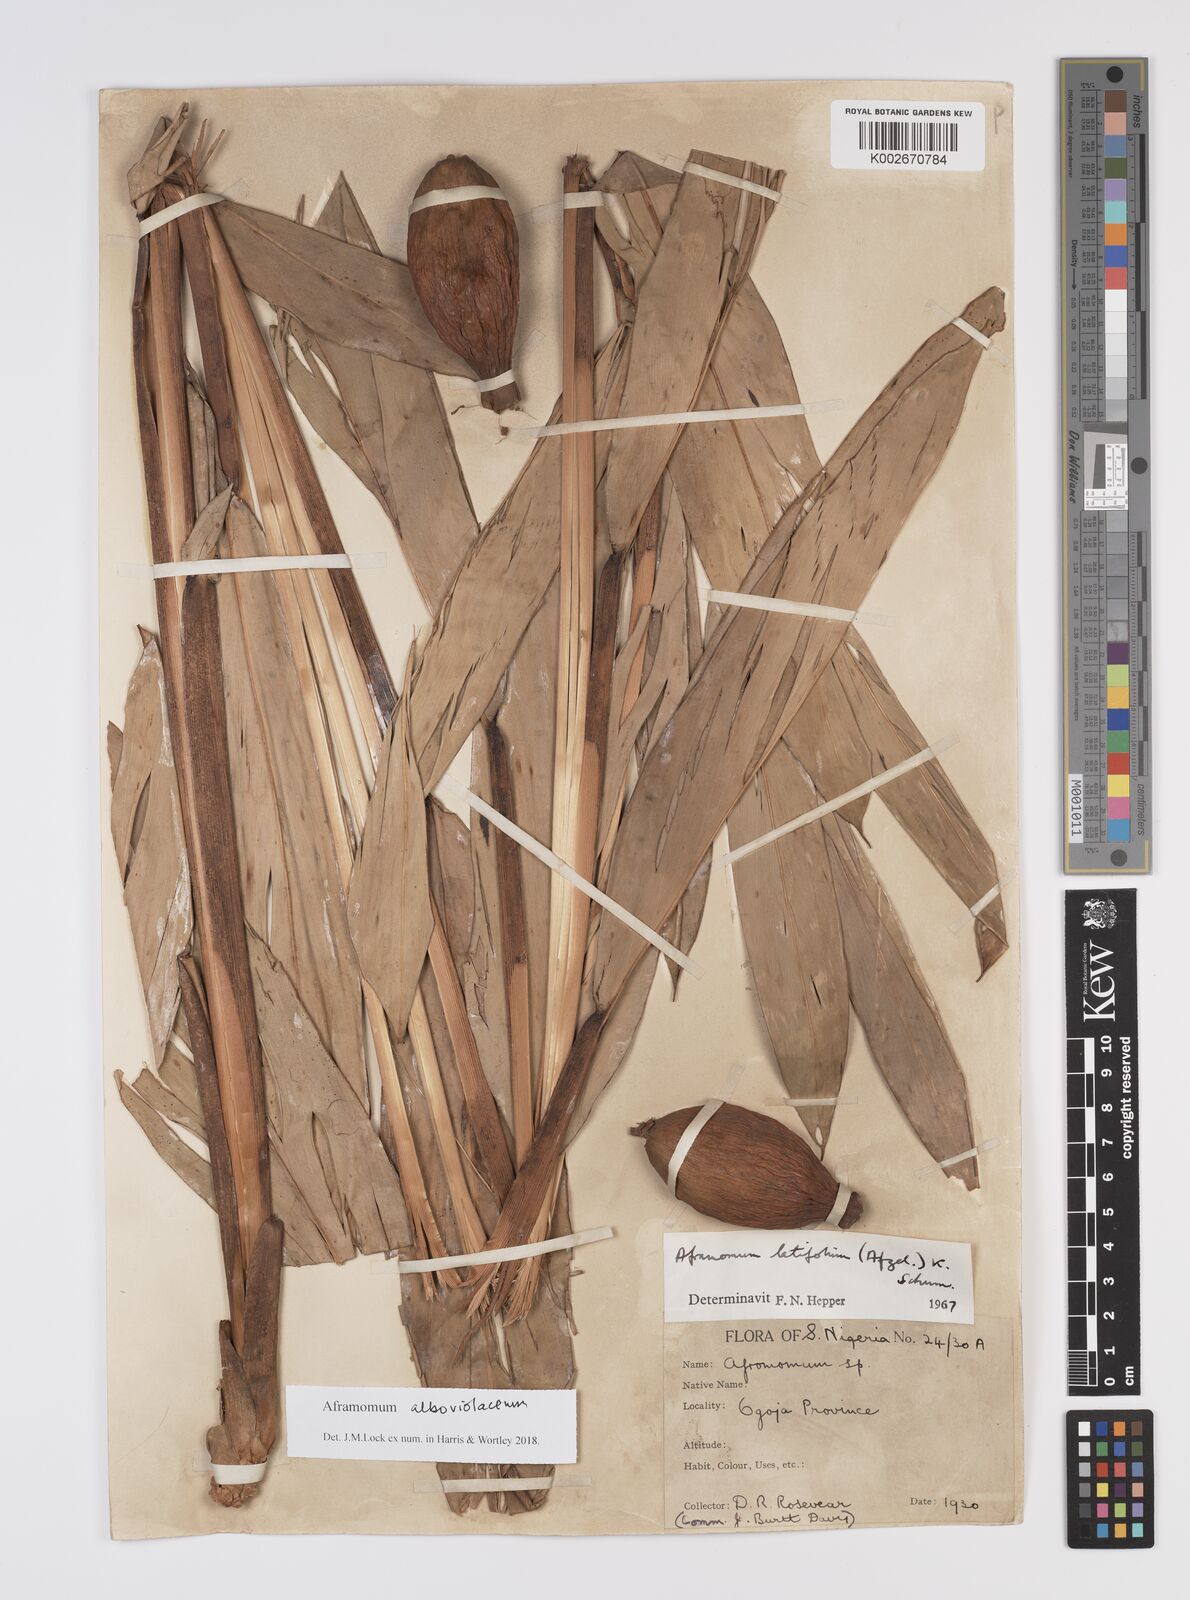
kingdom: Plantae
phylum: Tracheophyta
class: Liliopsida
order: Zingiberales
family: Zingiberaceae
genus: Aframomum
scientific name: Aframomum alboviolaceum
